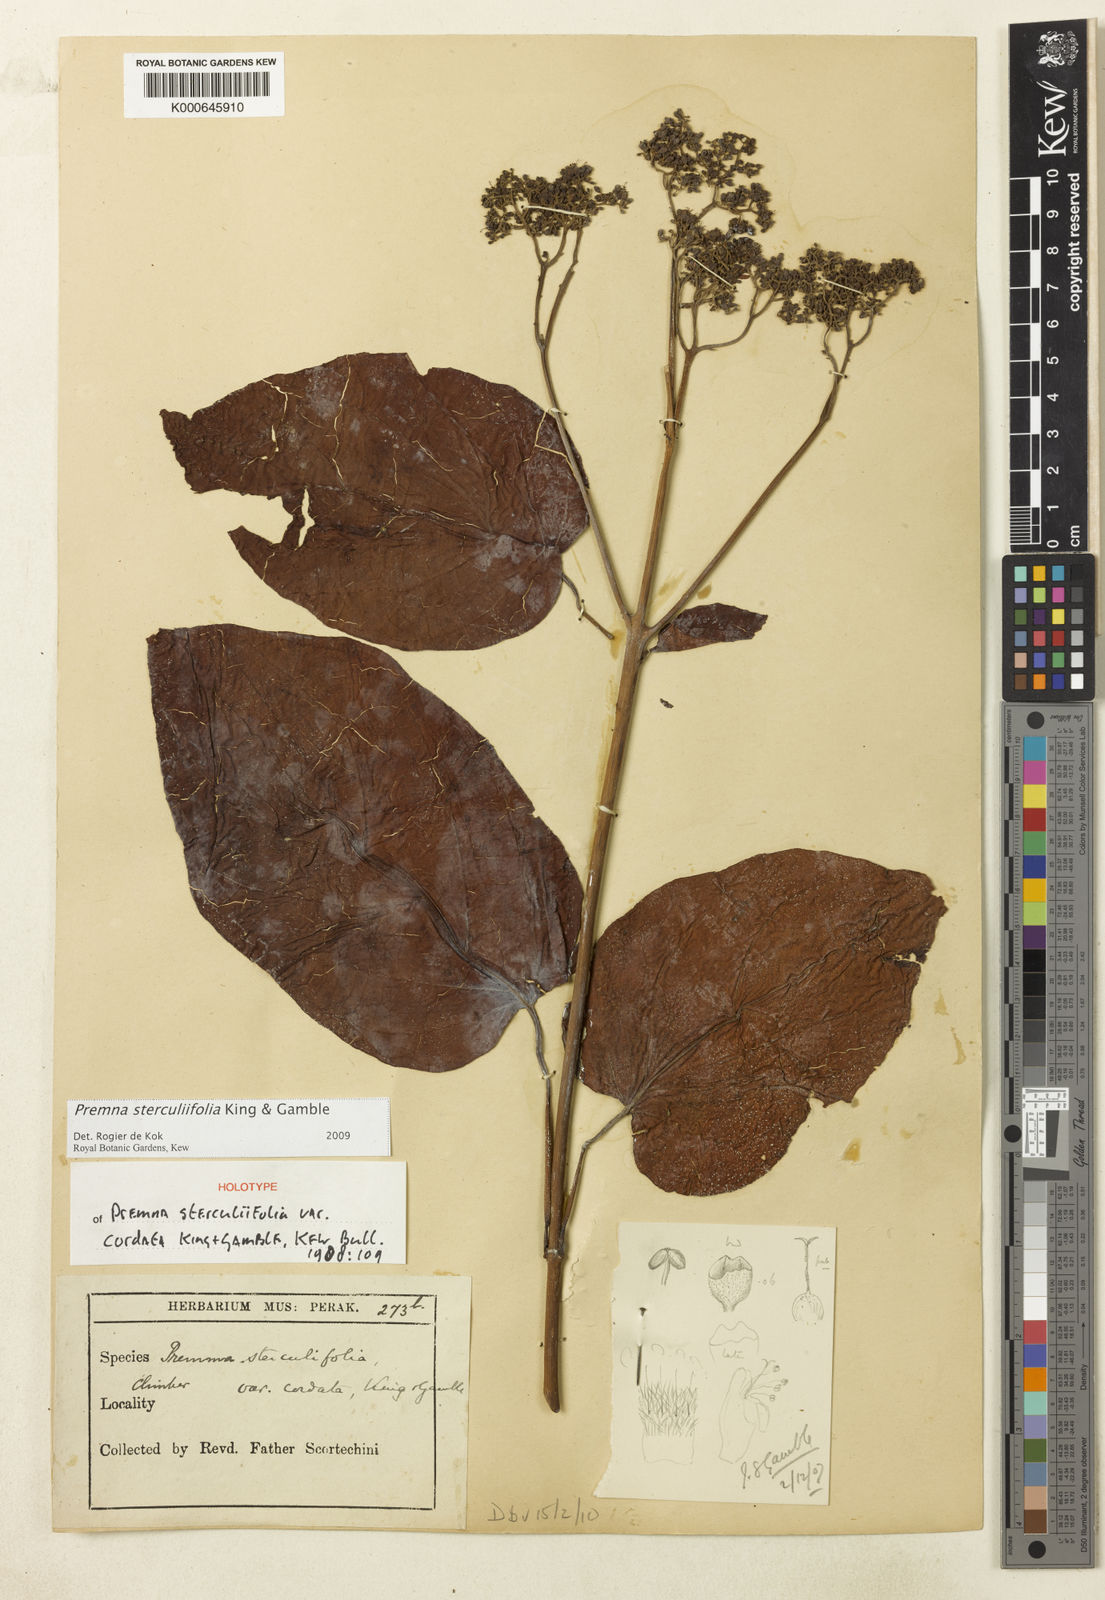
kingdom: Plantae
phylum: Tracheophyta
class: Magnoliopsida
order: Lamiales
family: Lamiaceae
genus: Premna
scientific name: Premna sterculiifolia
